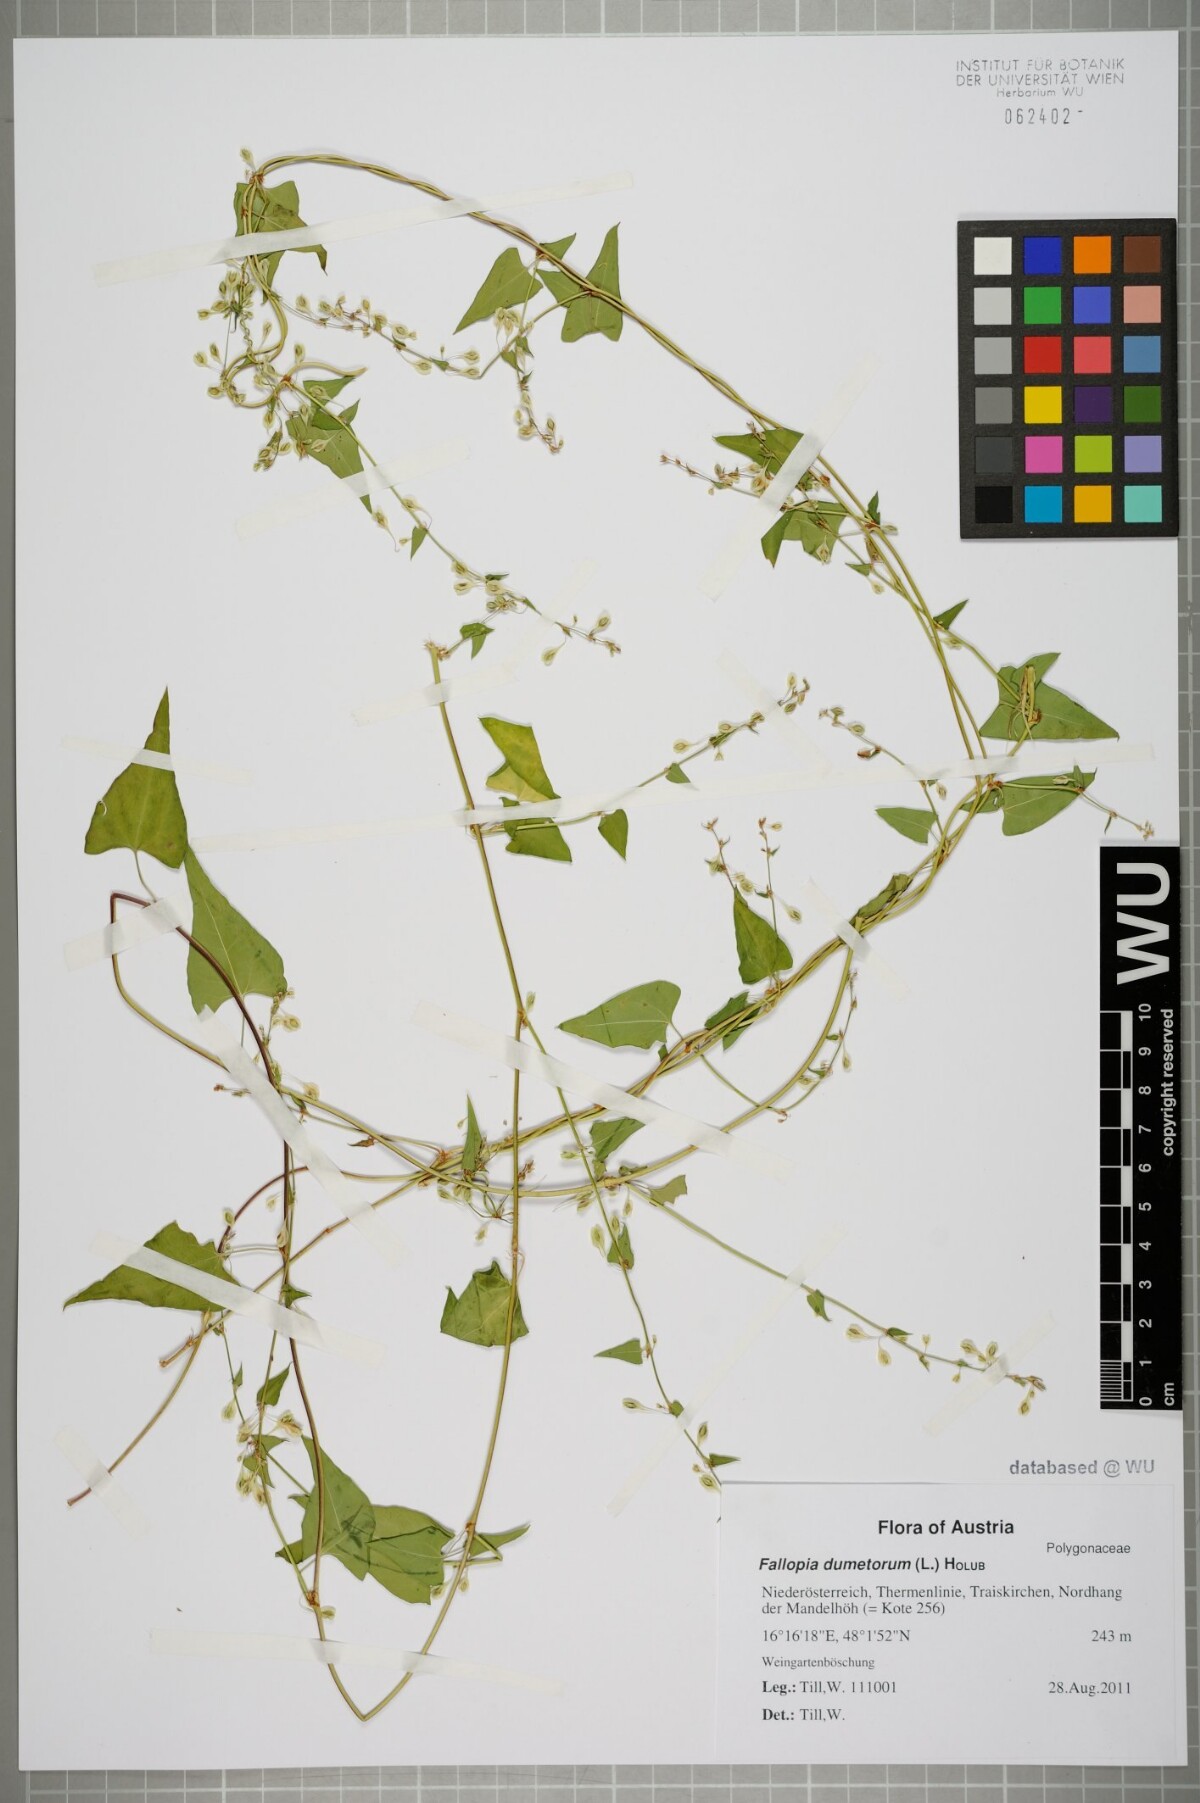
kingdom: Plantae
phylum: Tracheophyta
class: Magnoliopsida
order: Caryophyllales
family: Polygonaceae
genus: Fallopia
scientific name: Fallopia dumetorum
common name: Copse-bindweed
